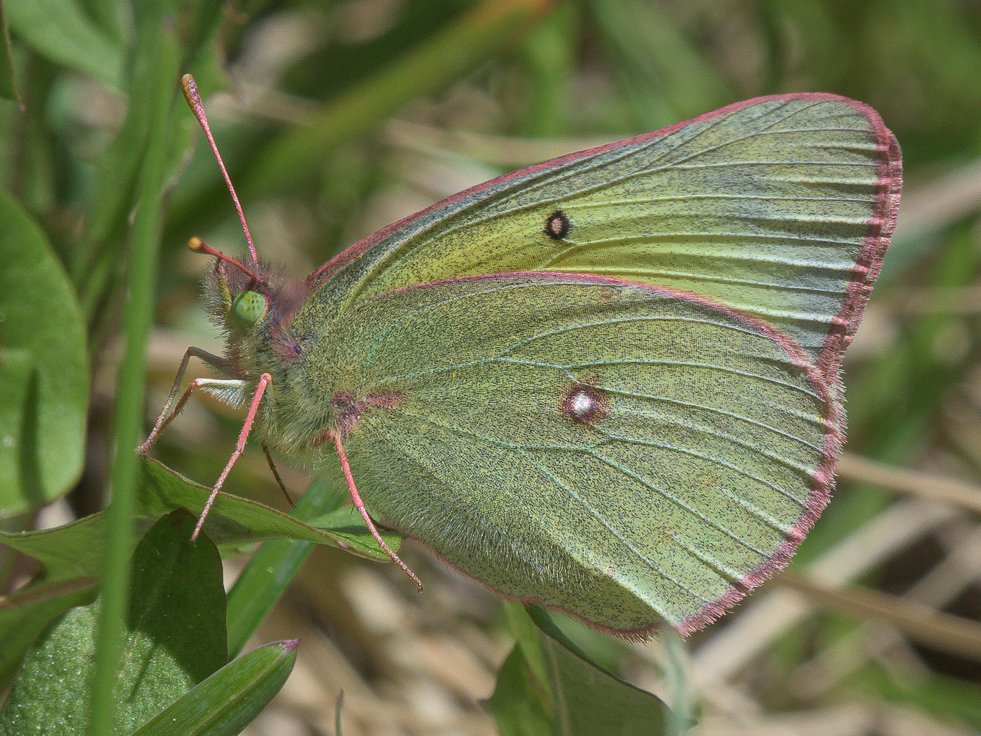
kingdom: Animalia
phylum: Arthropoda
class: Insecta
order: Lepidoptera
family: Pieridae
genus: Colias
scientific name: Colias philodice
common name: Clouded Sulphur
